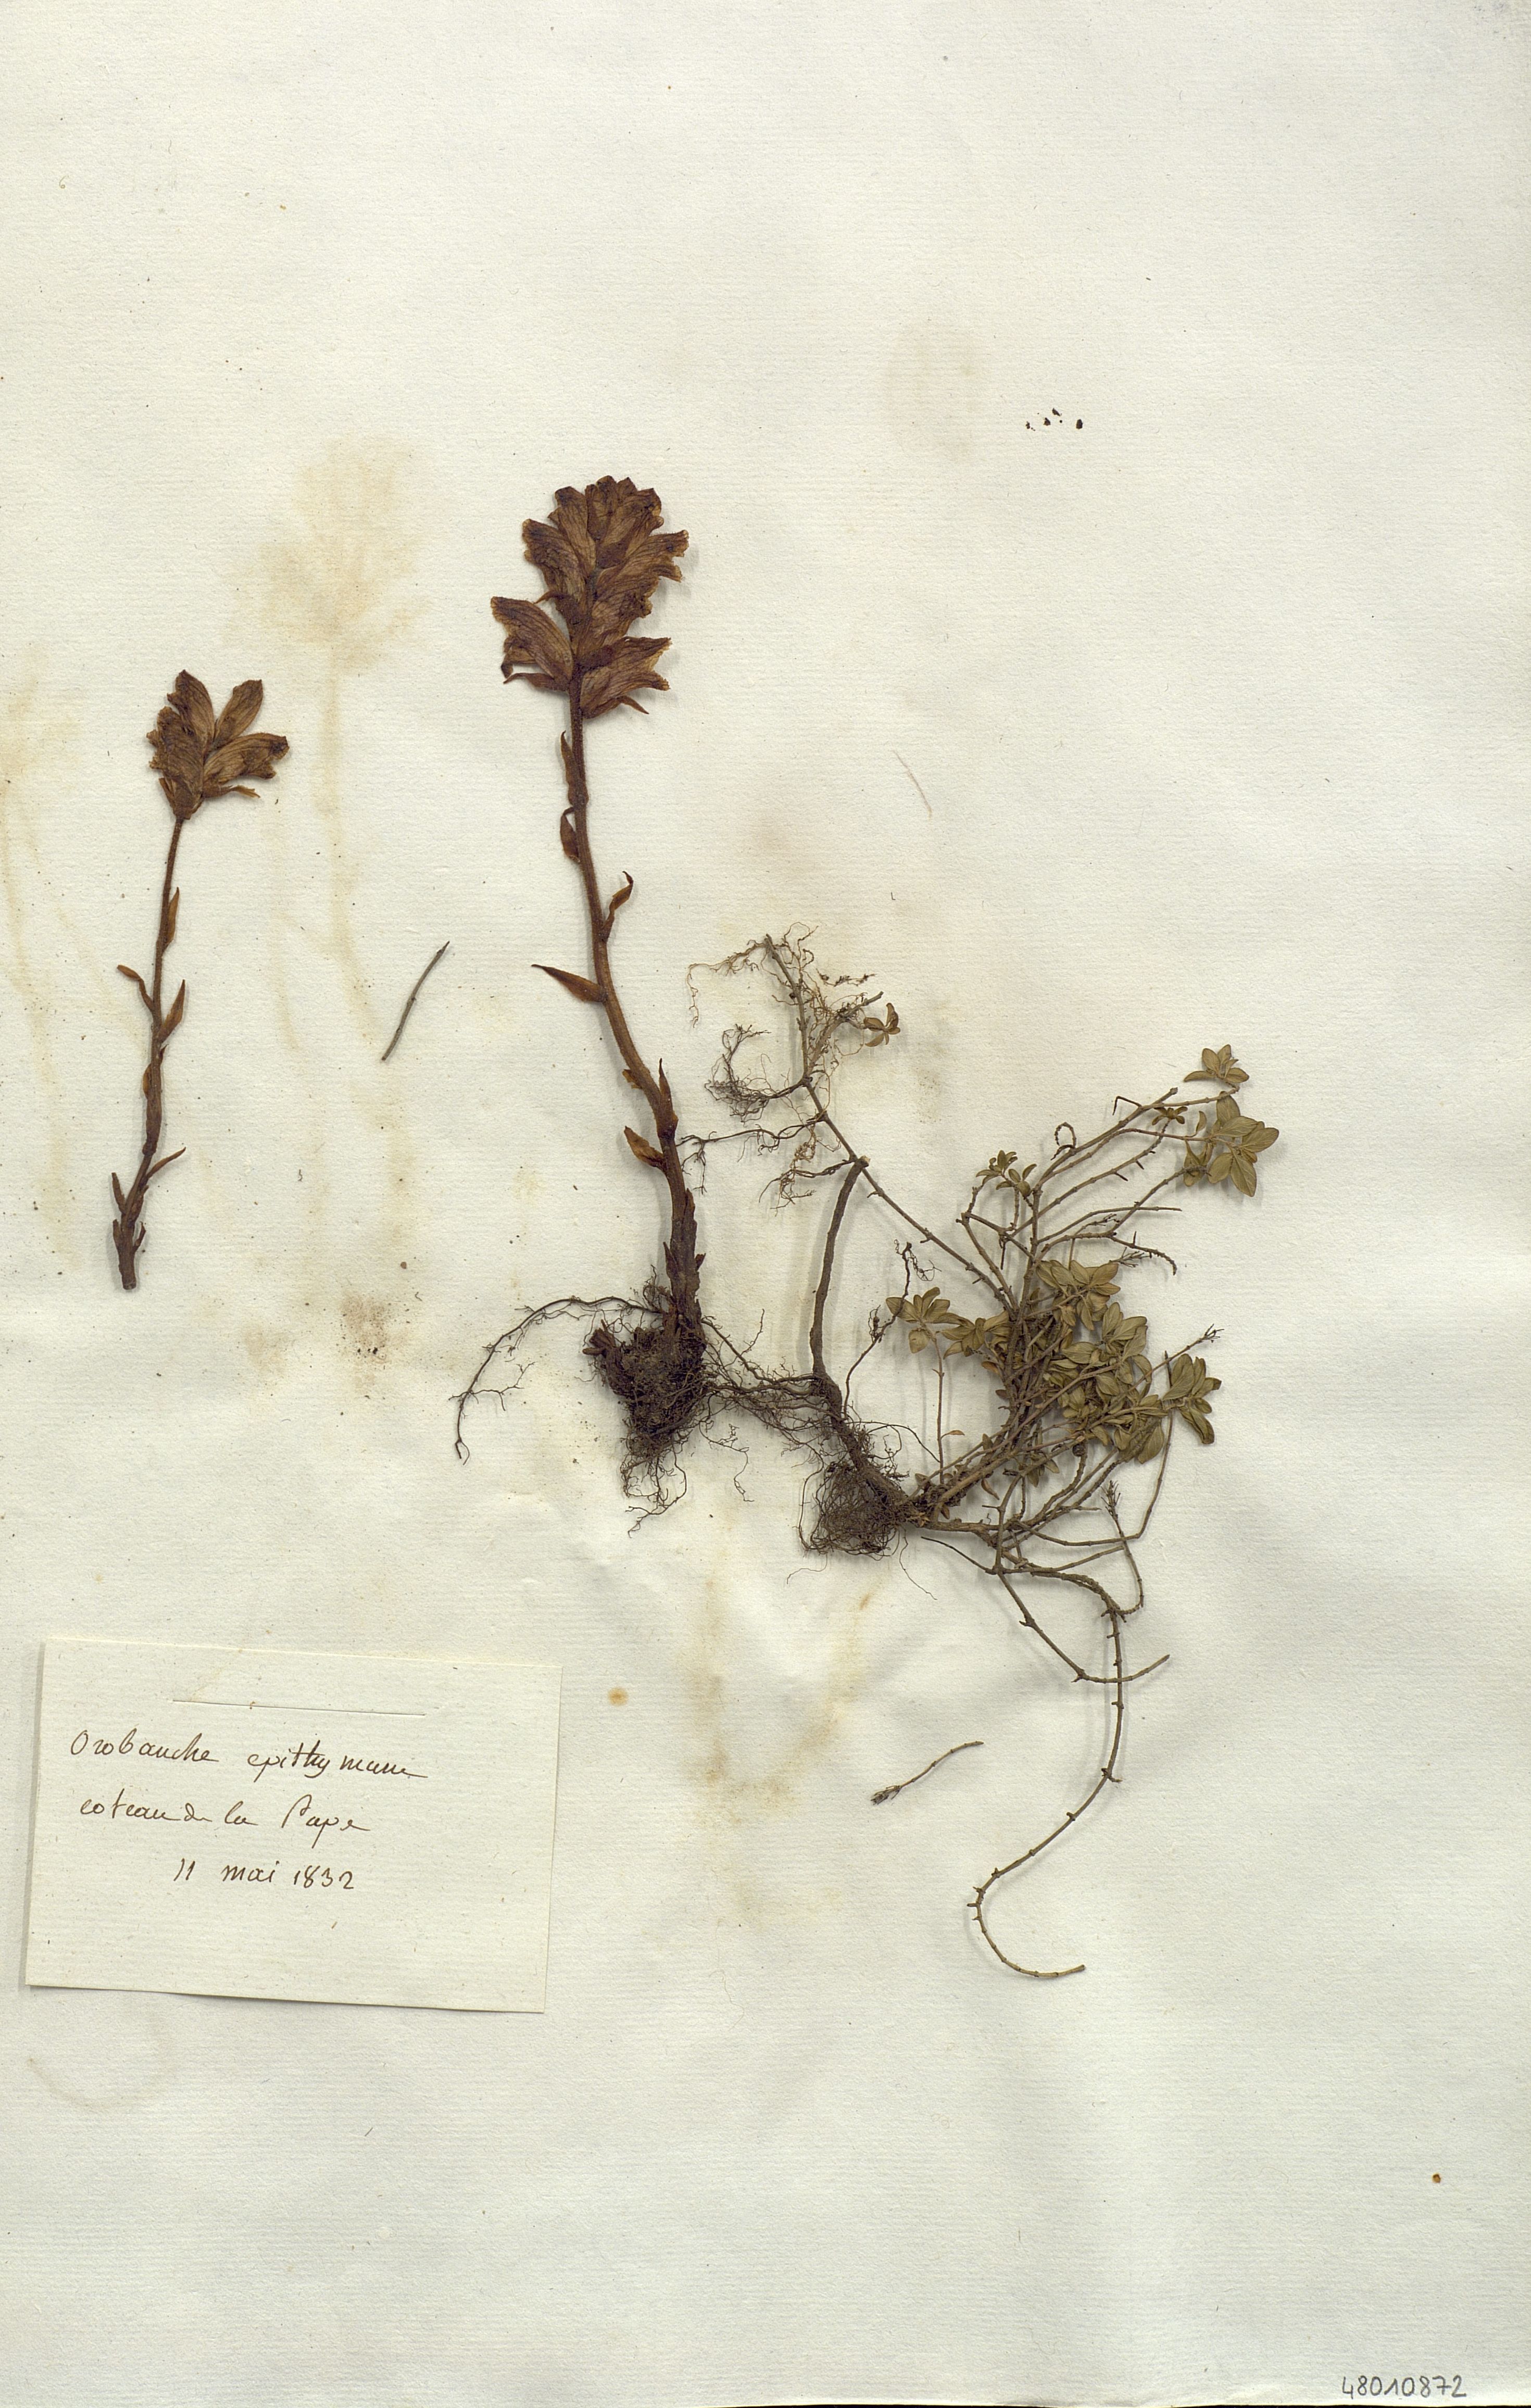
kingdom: Plantae
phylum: Tracheophyta
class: Magnoliopsida
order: Lamiales
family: Orobanchaceae
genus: Orobanche
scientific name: Orobanche alba
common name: Thyme broomrape
